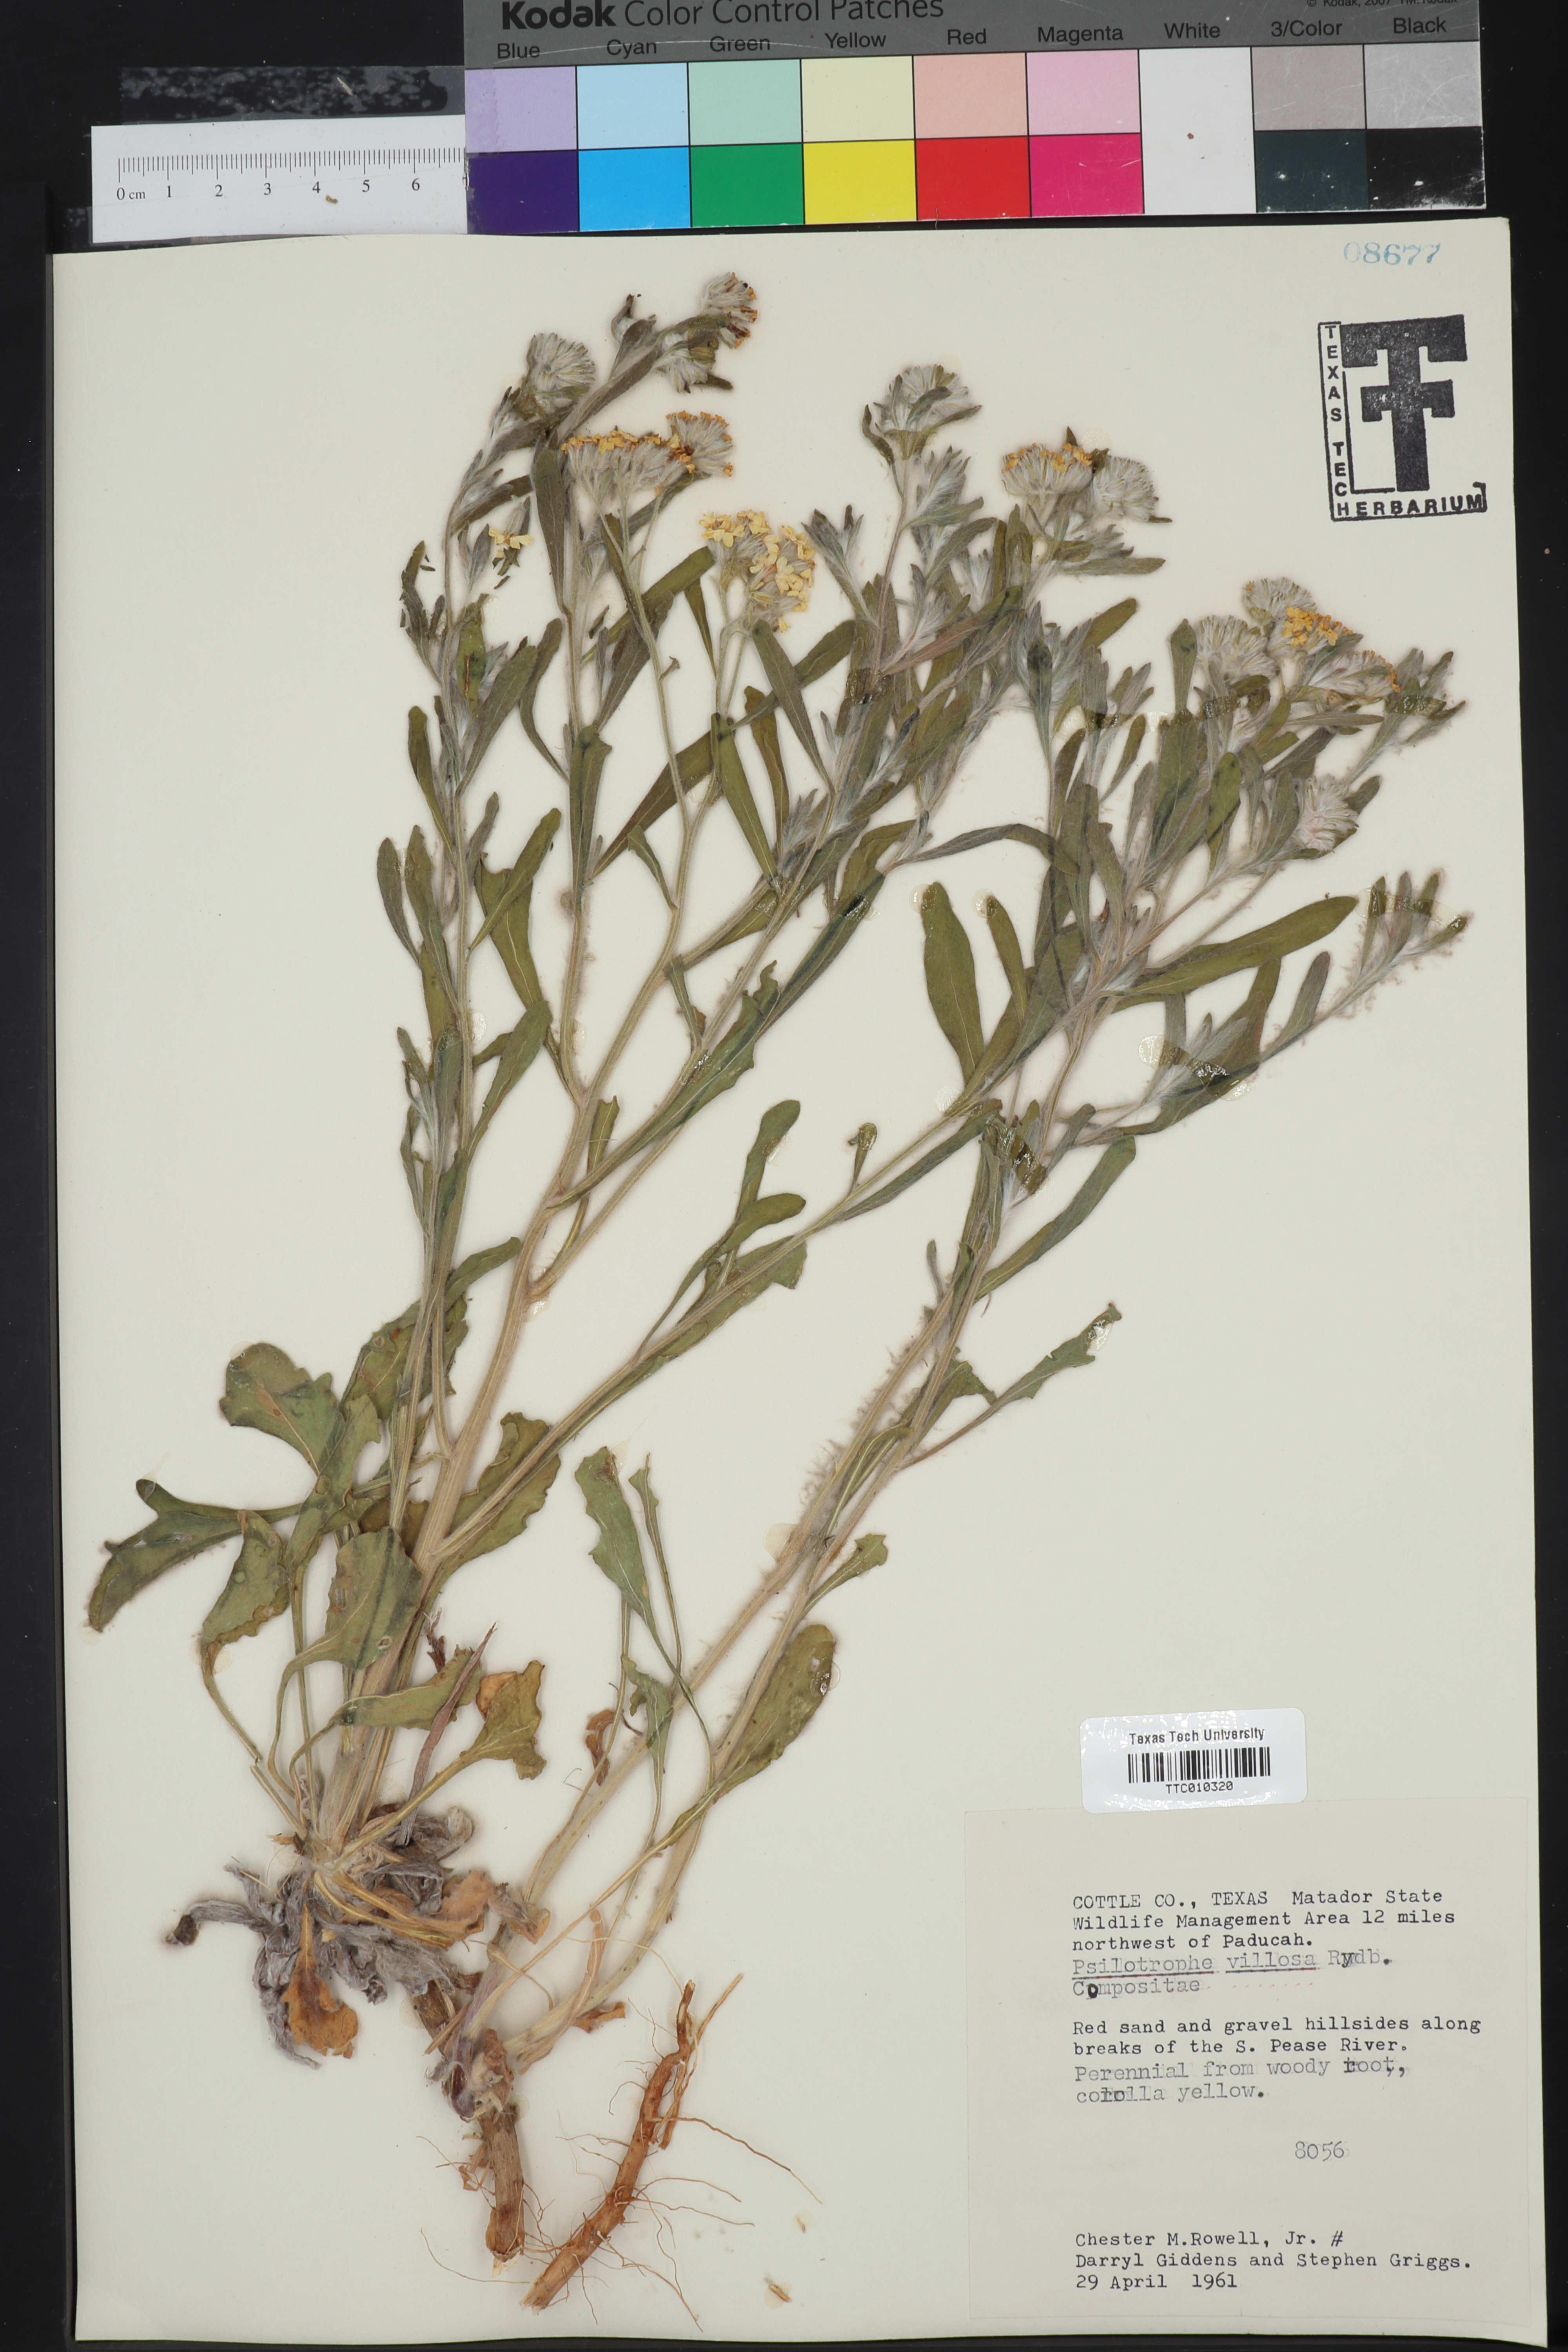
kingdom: Plantae
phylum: Tracheophyta
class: Magnoliopsida
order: Asterales
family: Asteraceae
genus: Psilostrophe
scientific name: Psilostrophe villosa
